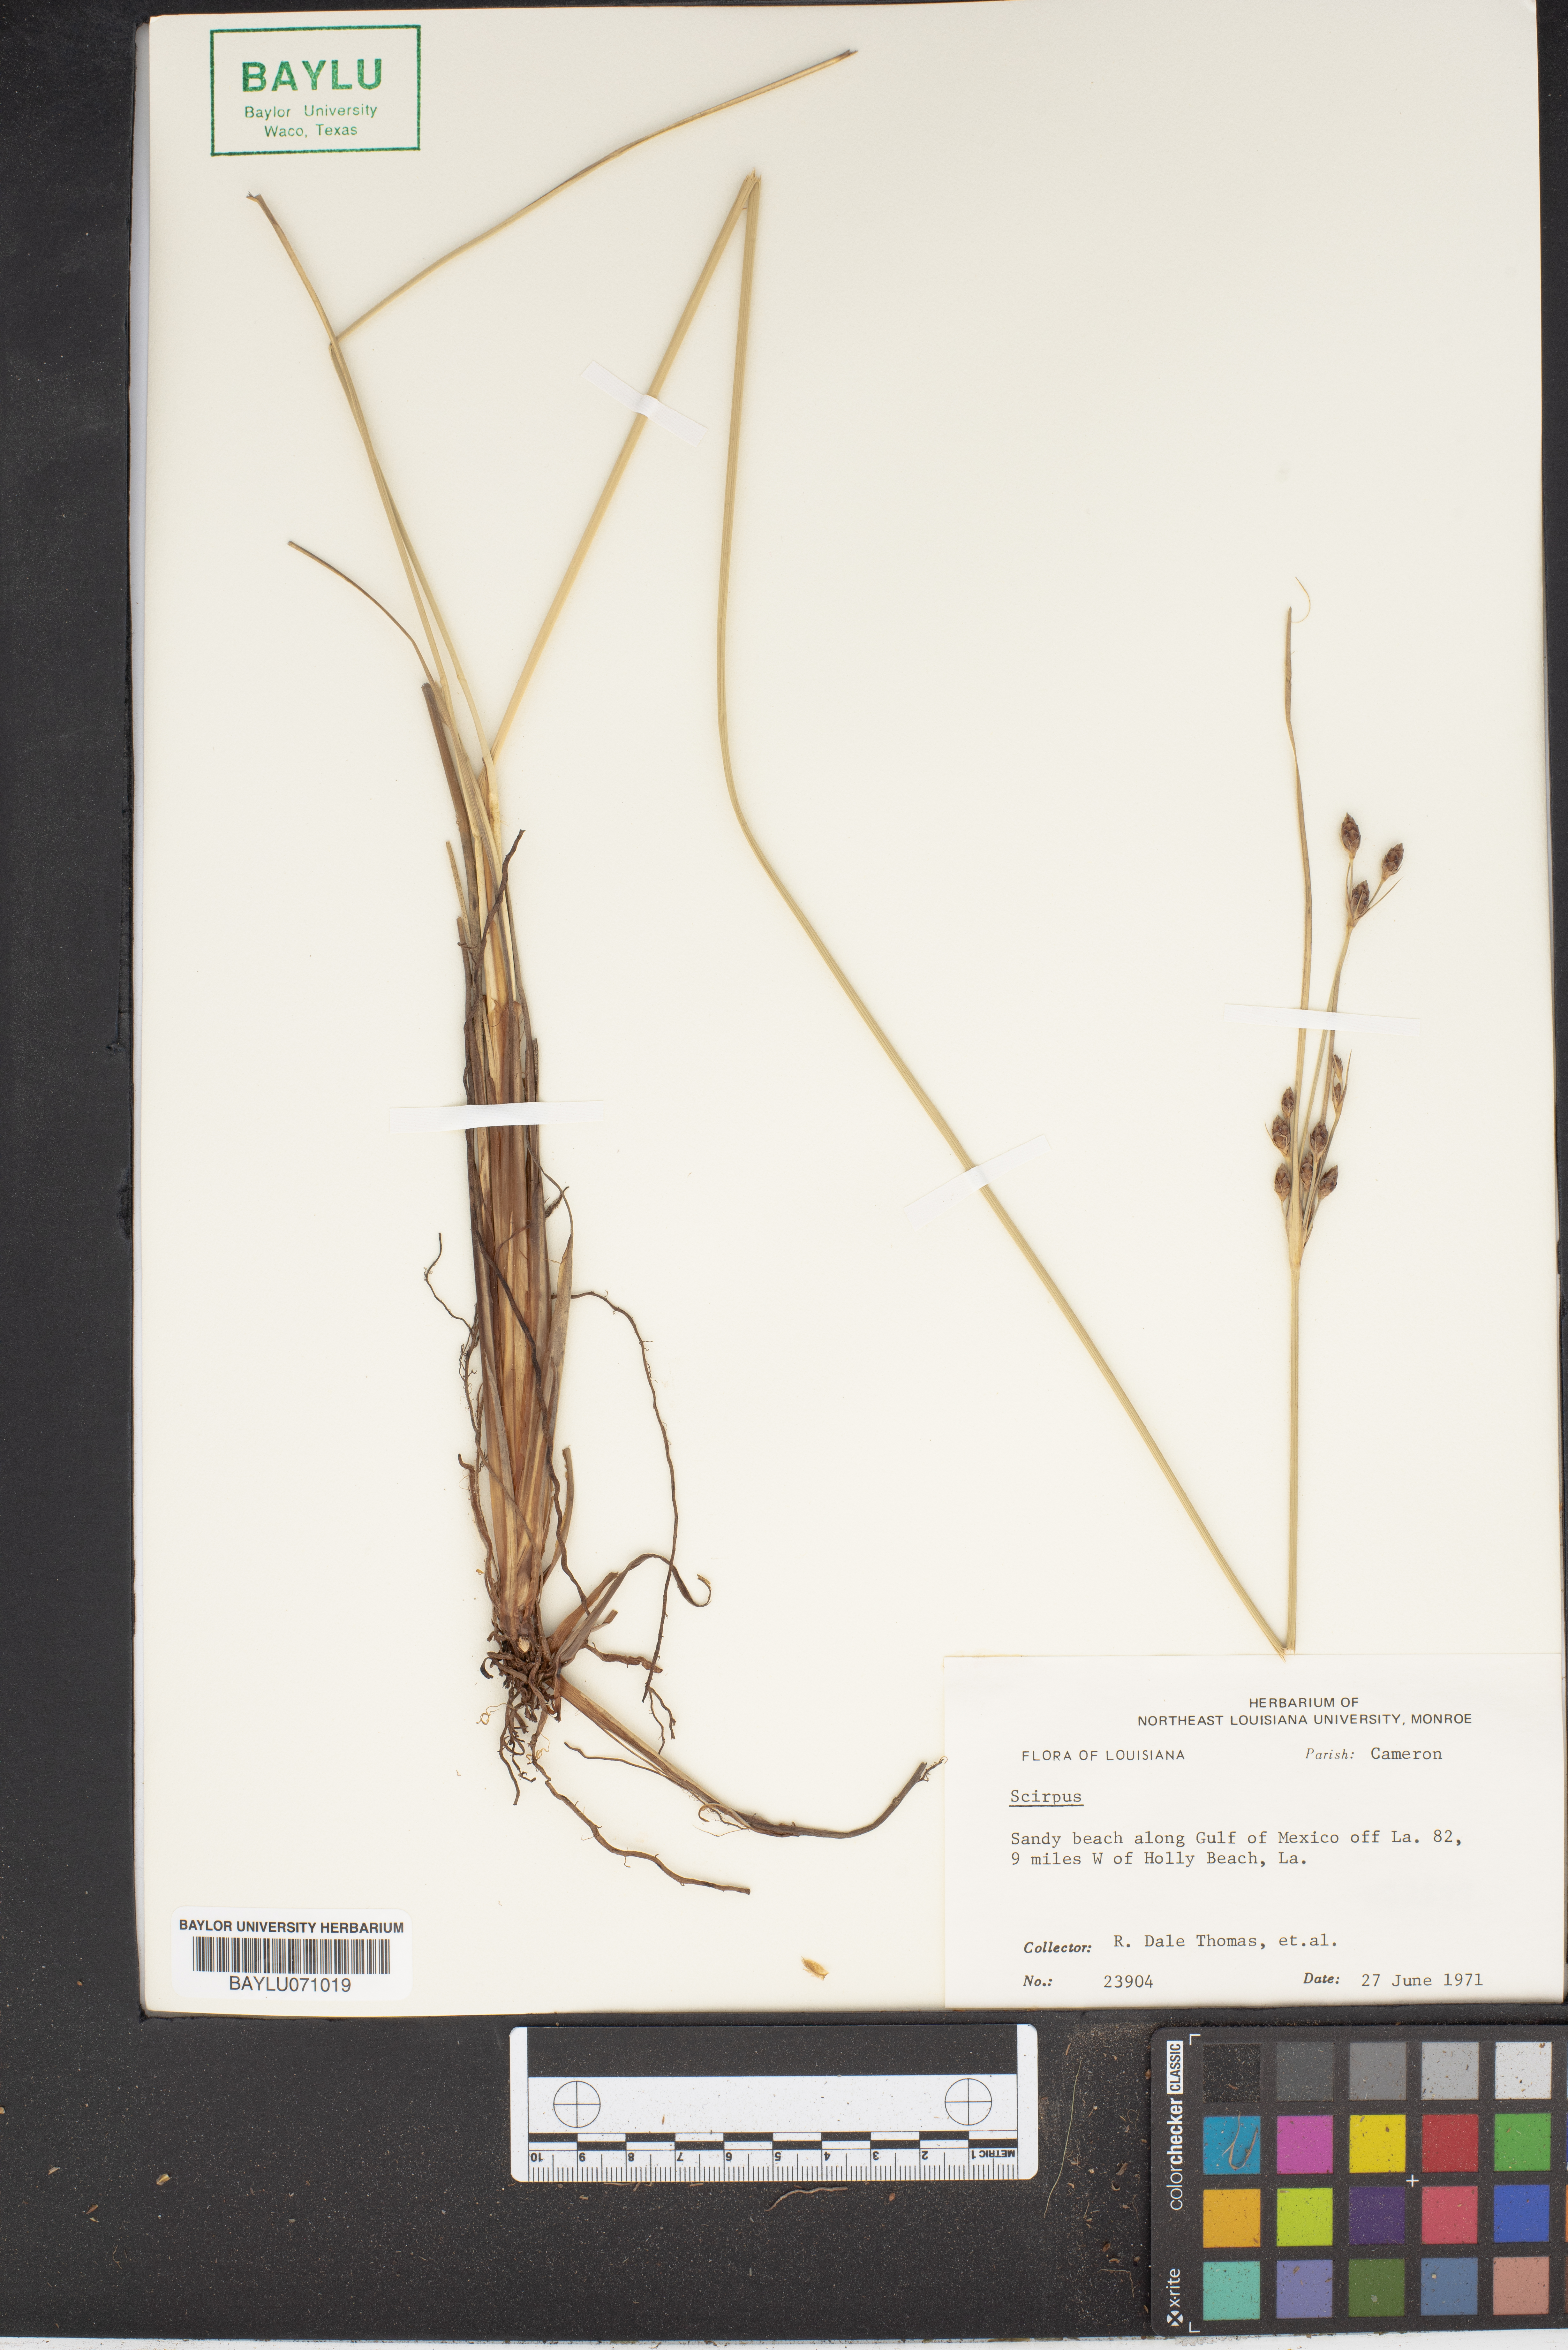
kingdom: Plantae
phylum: Tracheophyta
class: Liliopsida
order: Poales
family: Cyperaceae
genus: Scirpus
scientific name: Scirpus
